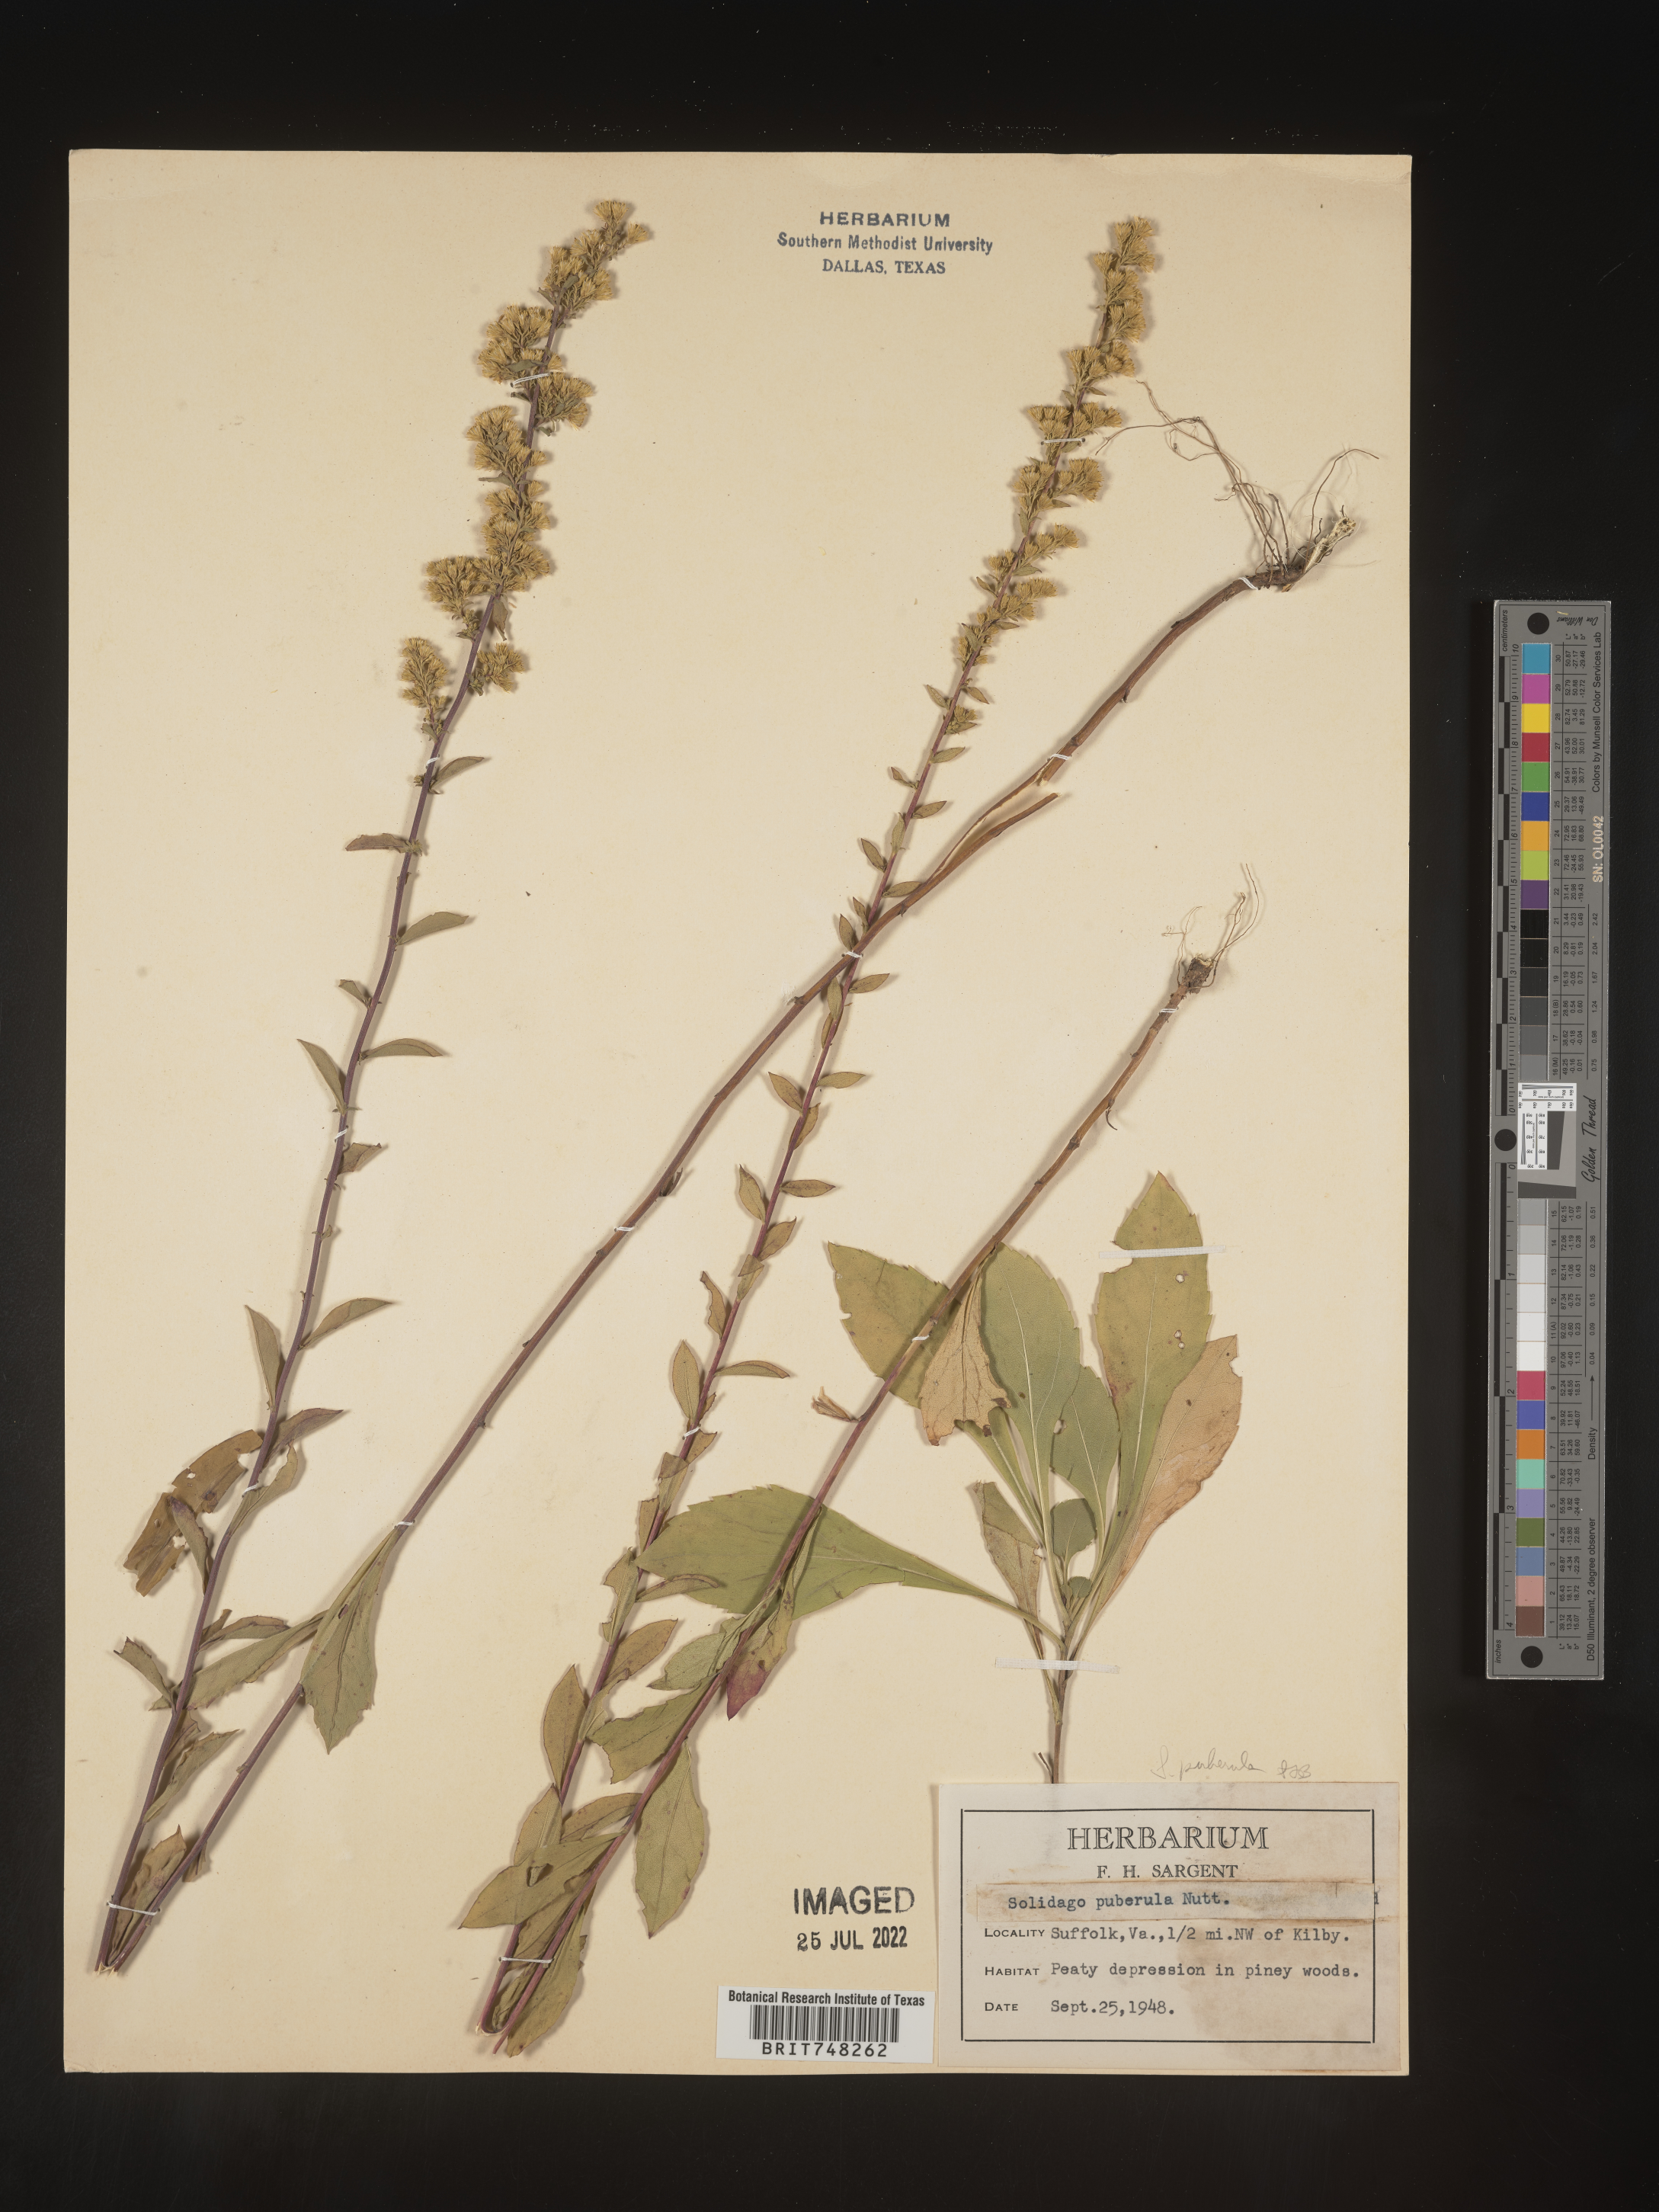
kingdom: Plantae
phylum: Tracheophyta
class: Magnoliopsida
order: Asterales
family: Asteraceae
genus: Solidago
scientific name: Solidago puberula
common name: Downy goldenrod
